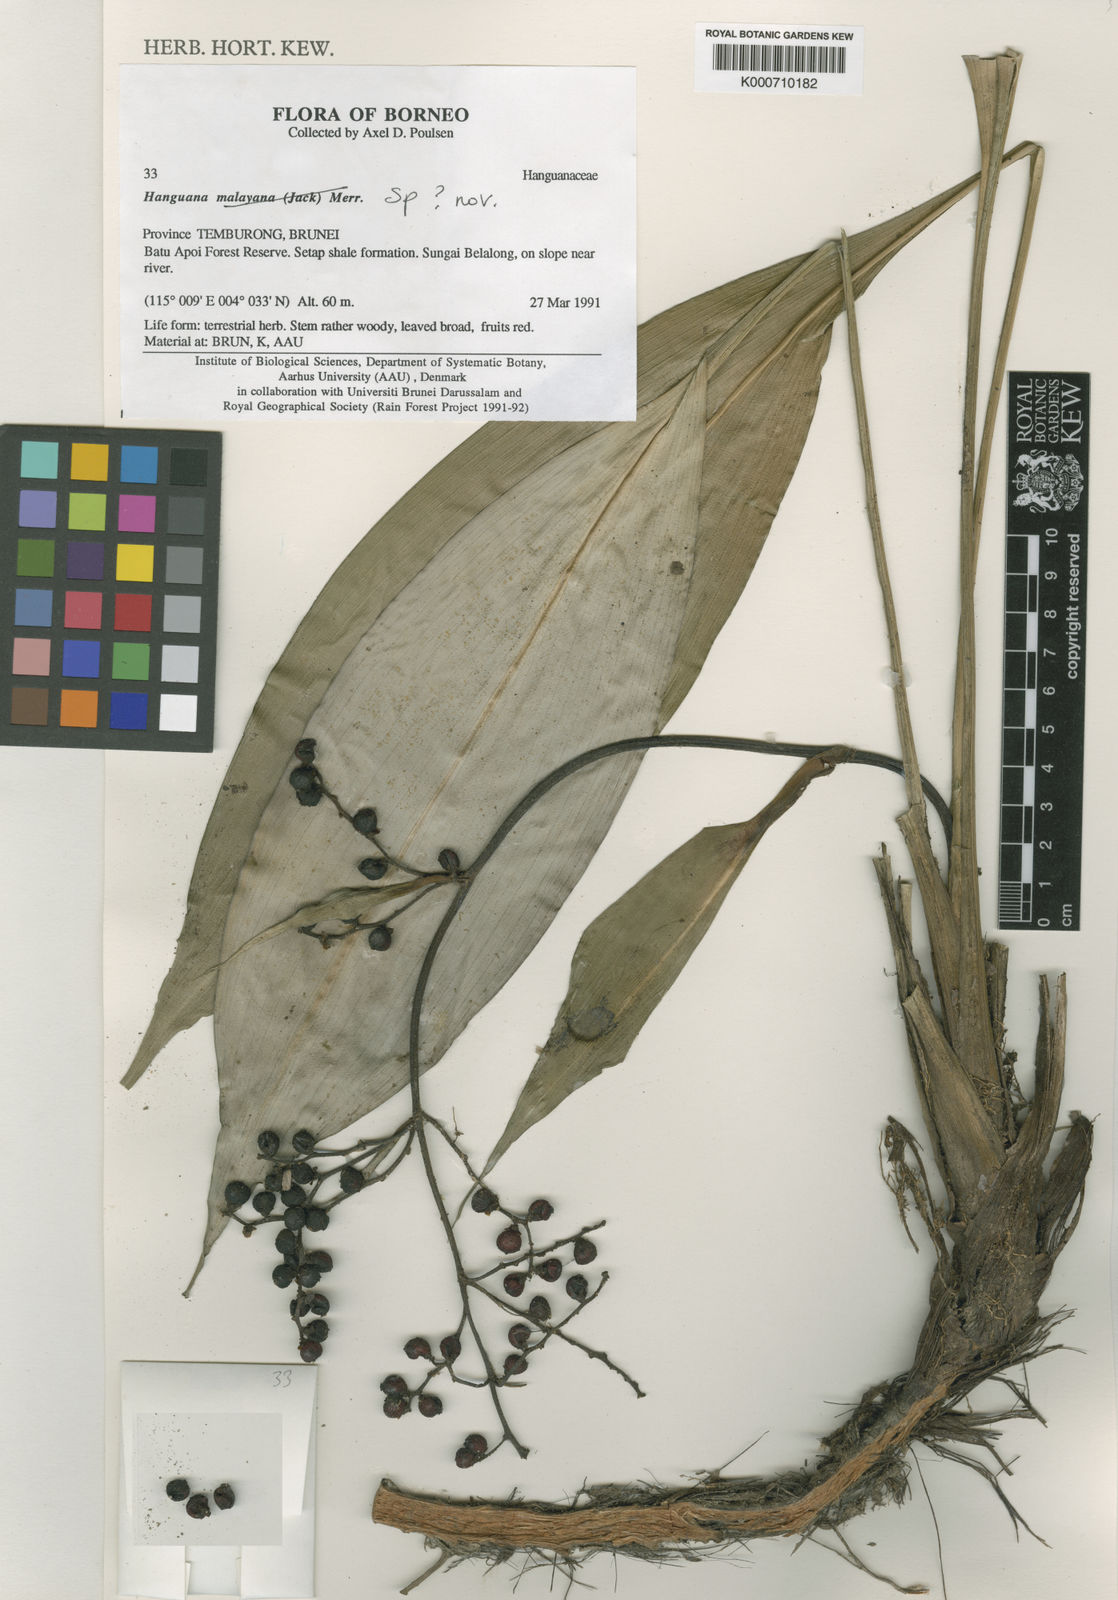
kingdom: Plantae
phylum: Tracheophyta
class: Liliopsida
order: Commelinales
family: Hanguanaceae
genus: Hanguana
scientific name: Hanguana
